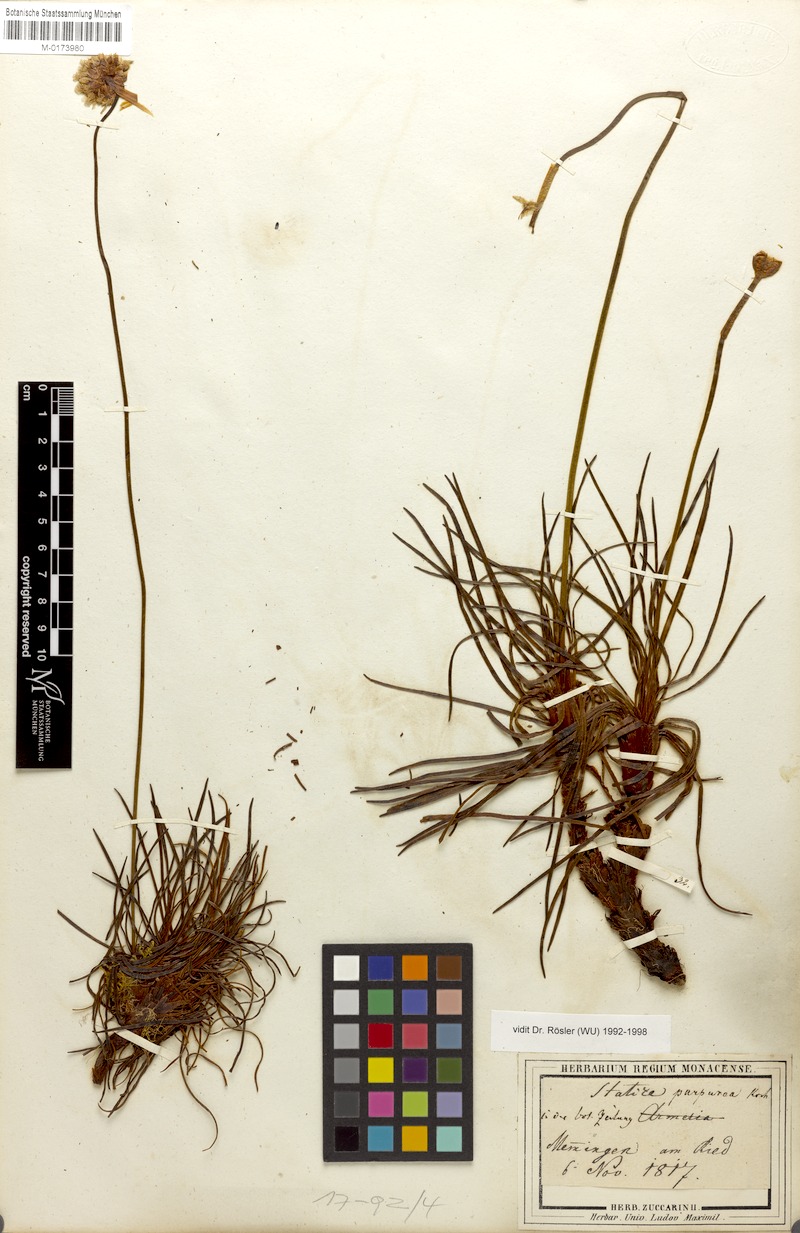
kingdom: Plantae
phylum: Tracheophyta
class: Magnoliopsida
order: Caryophyllales
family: Plumbaginaceae
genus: Armeria
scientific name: Armeria purpurea
